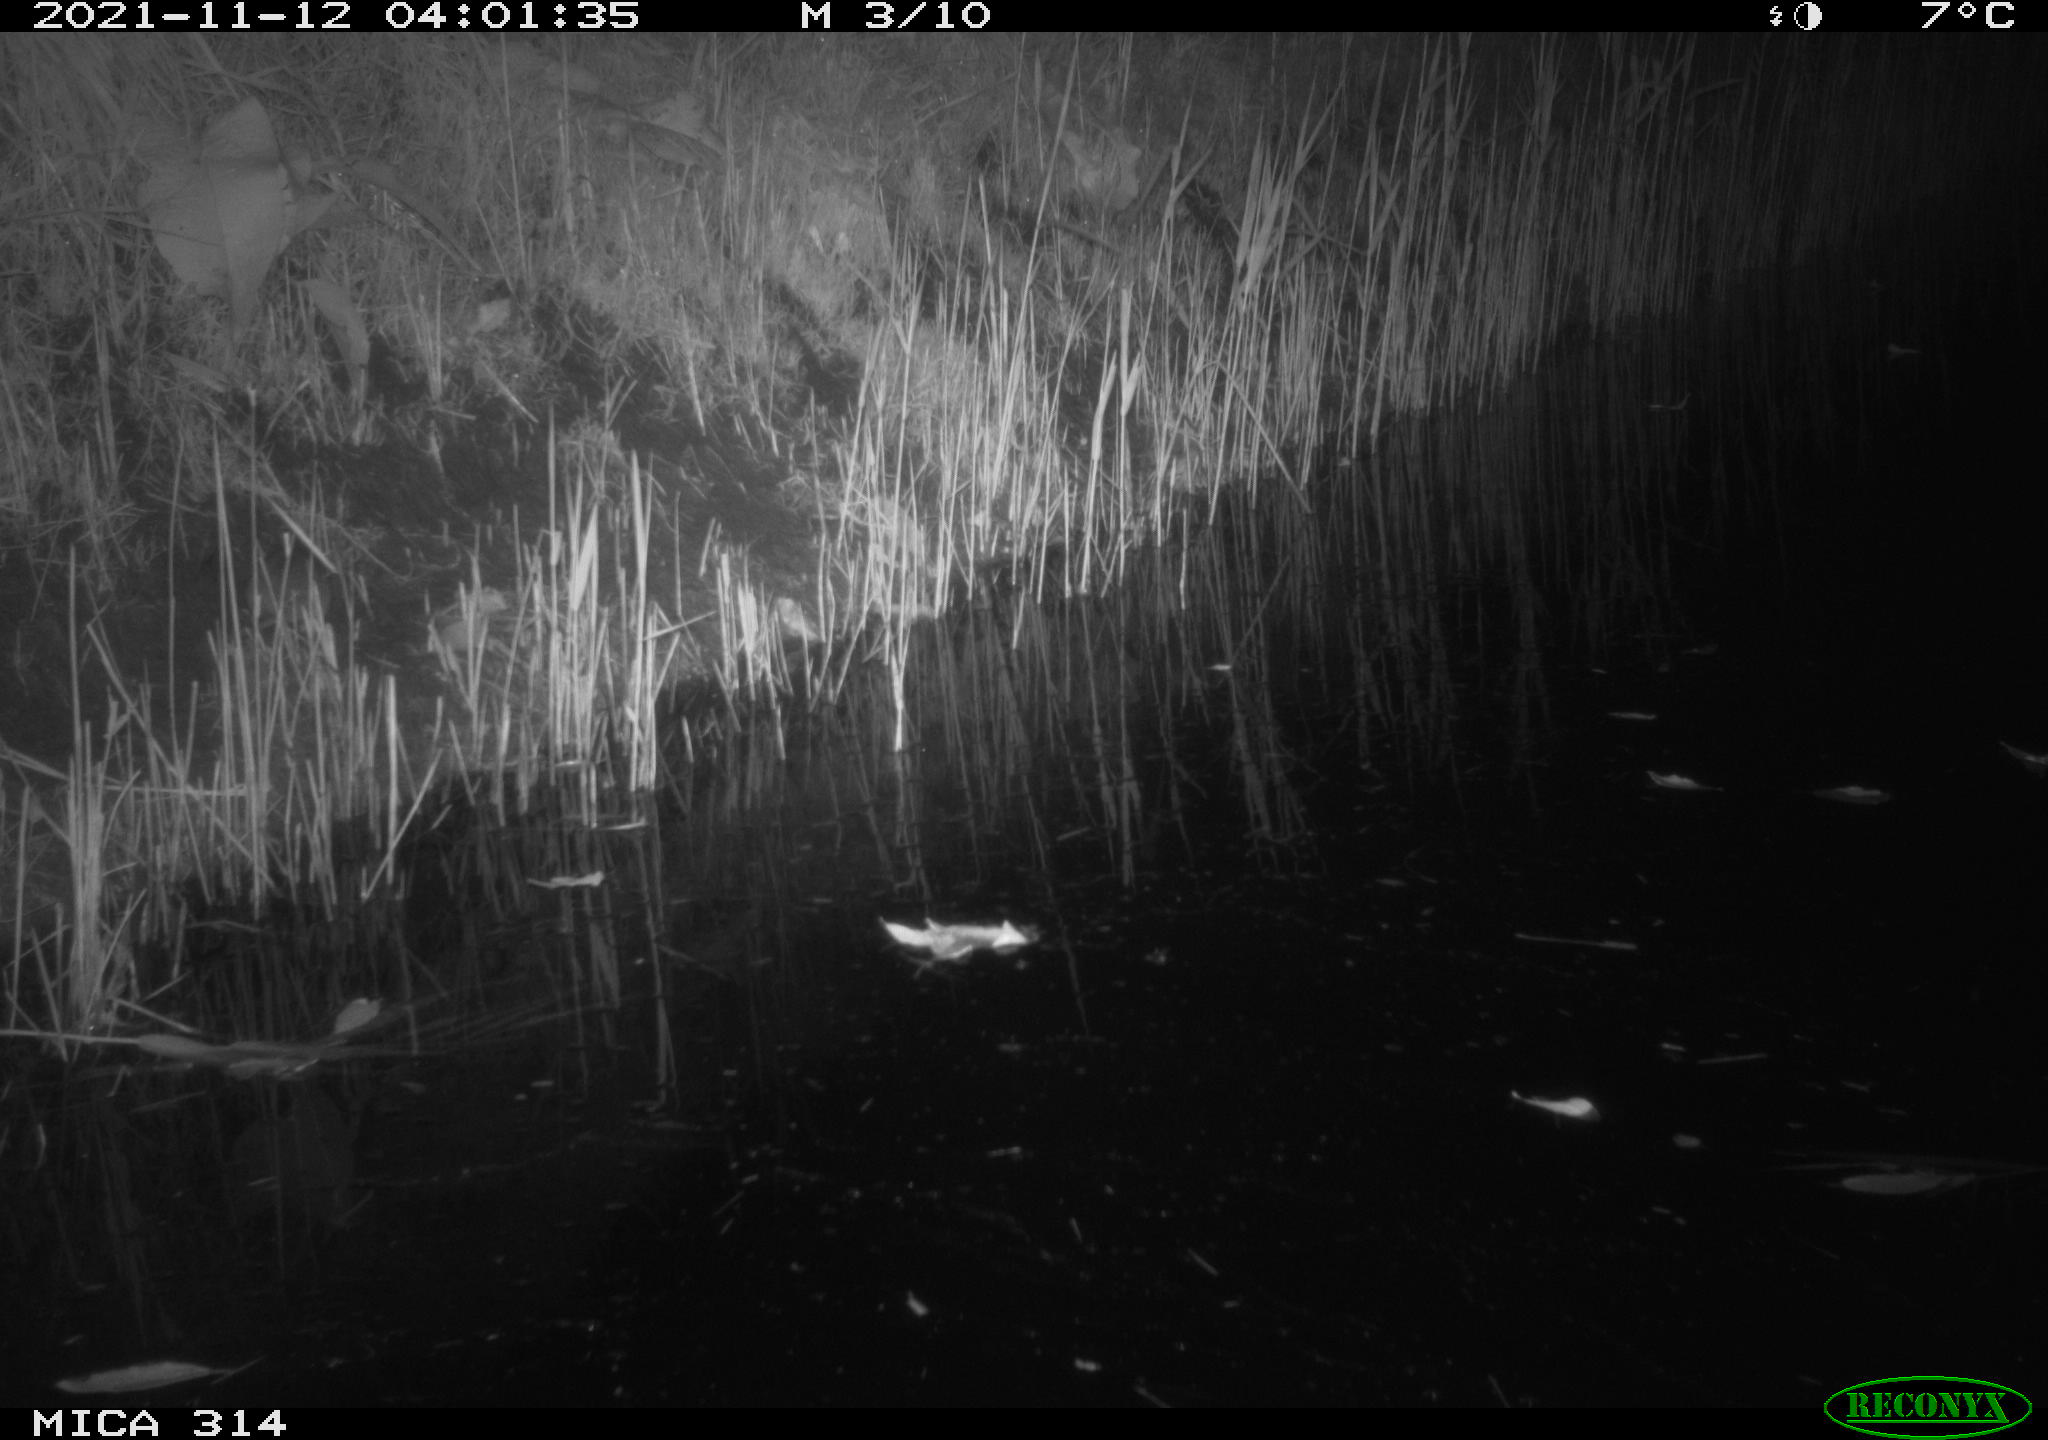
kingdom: Animalia
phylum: Chordata
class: Mammalia
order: Rodentia
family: Muridae
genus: Rattus
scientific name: Rattus norvegicus
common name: Brown rat
